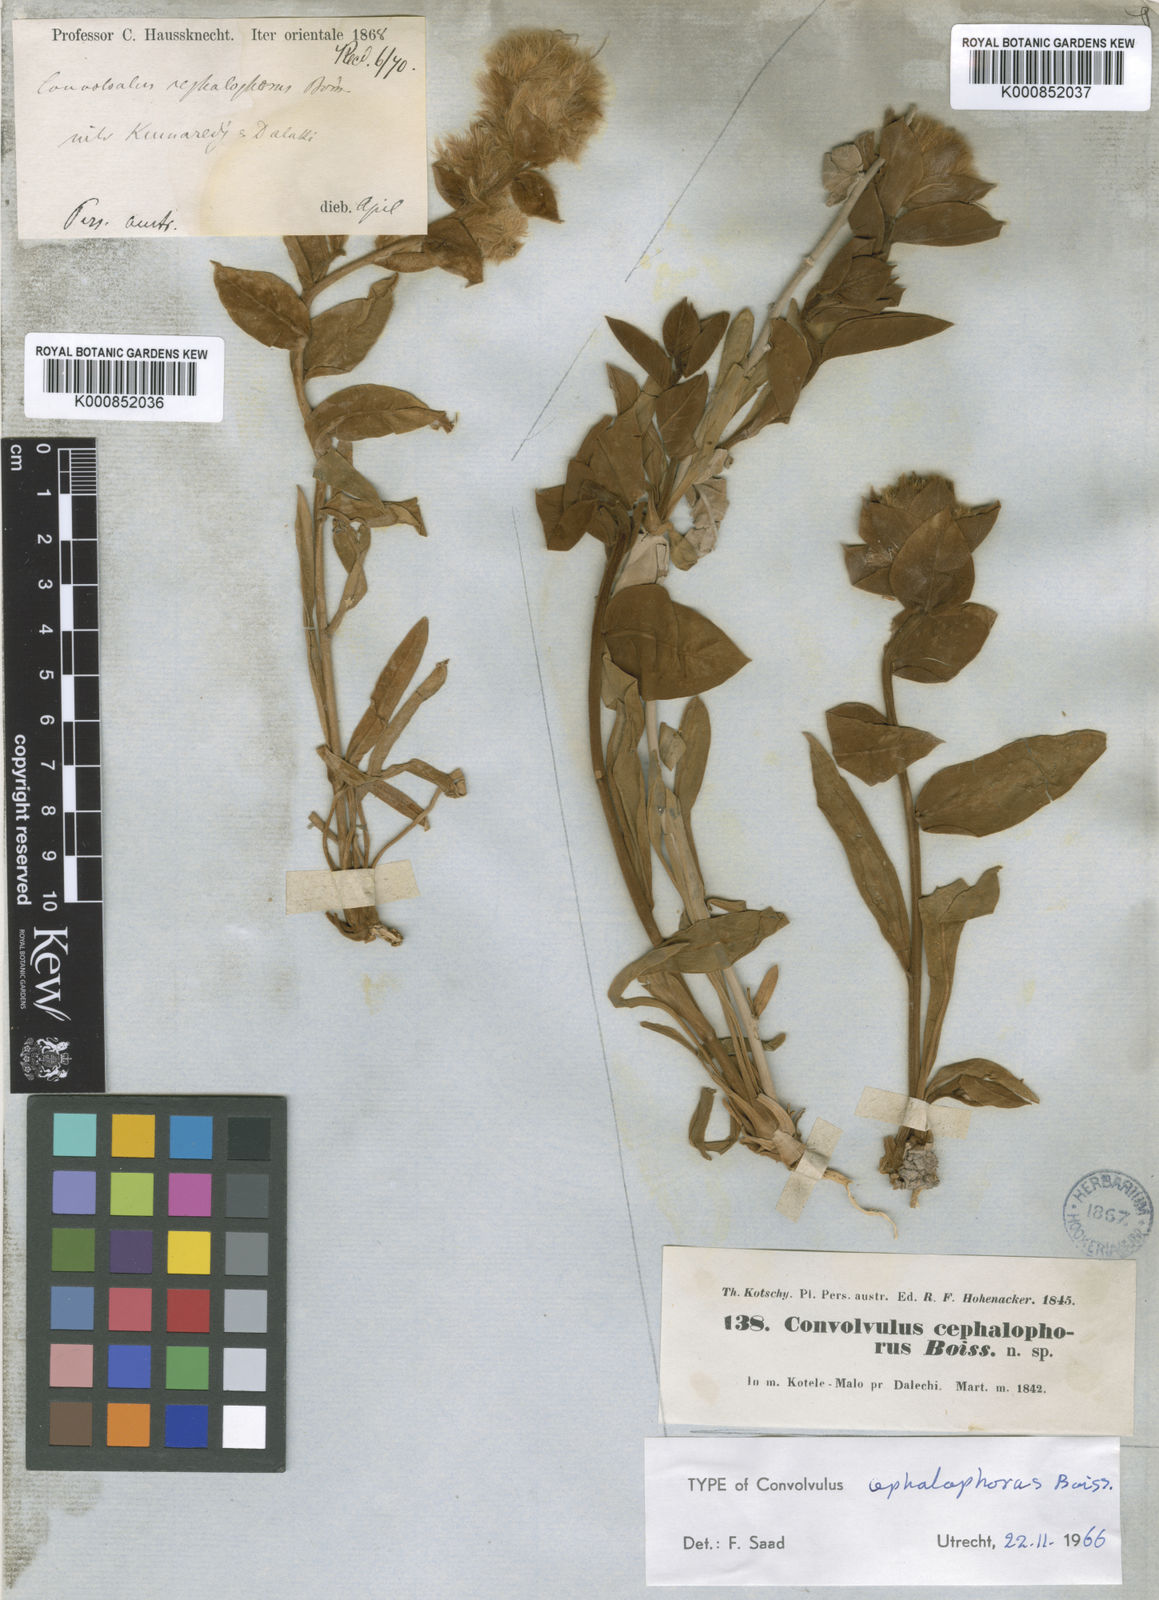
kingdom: Plantae
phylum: Tracheophyta
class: Magnoliopsida
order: Solanales
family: Convolvulaceae
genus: Convolvulus
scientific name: Convolvulus cephalophorus
